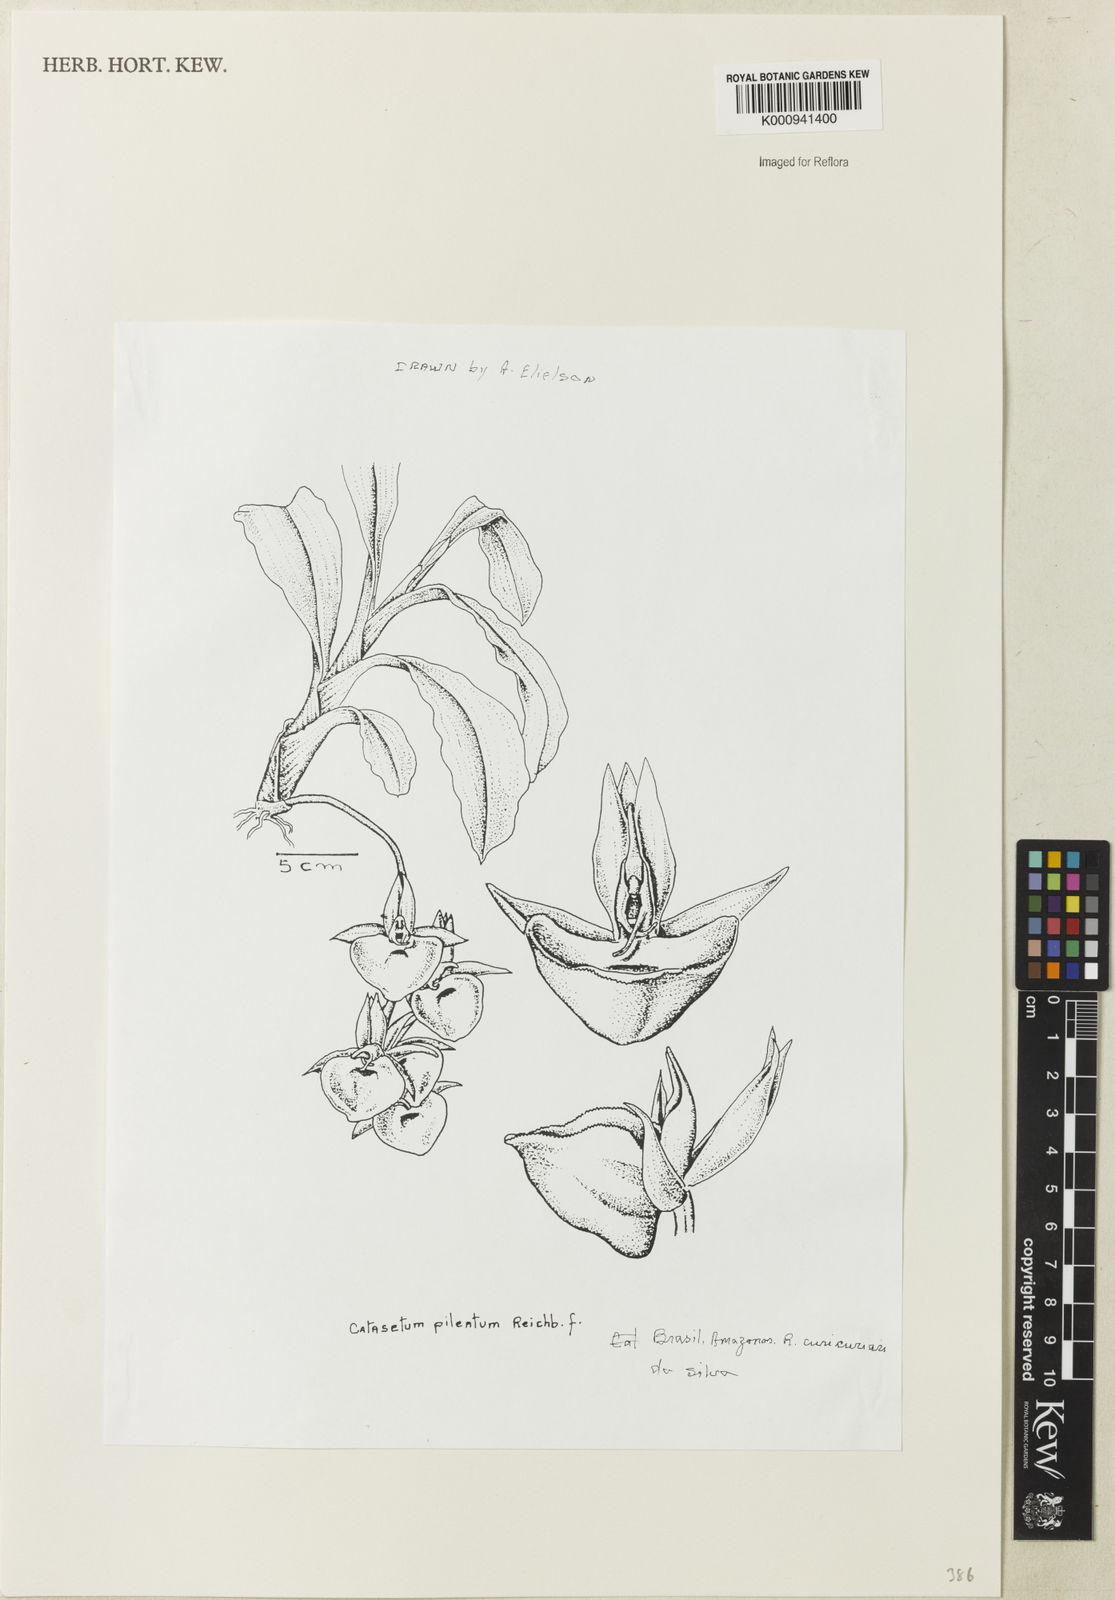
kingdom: Plantae
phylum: Tracheophyta
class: Liliopsida
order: Asparagales
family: Orchidaceae
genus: Catasetum
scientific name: Catasetum
